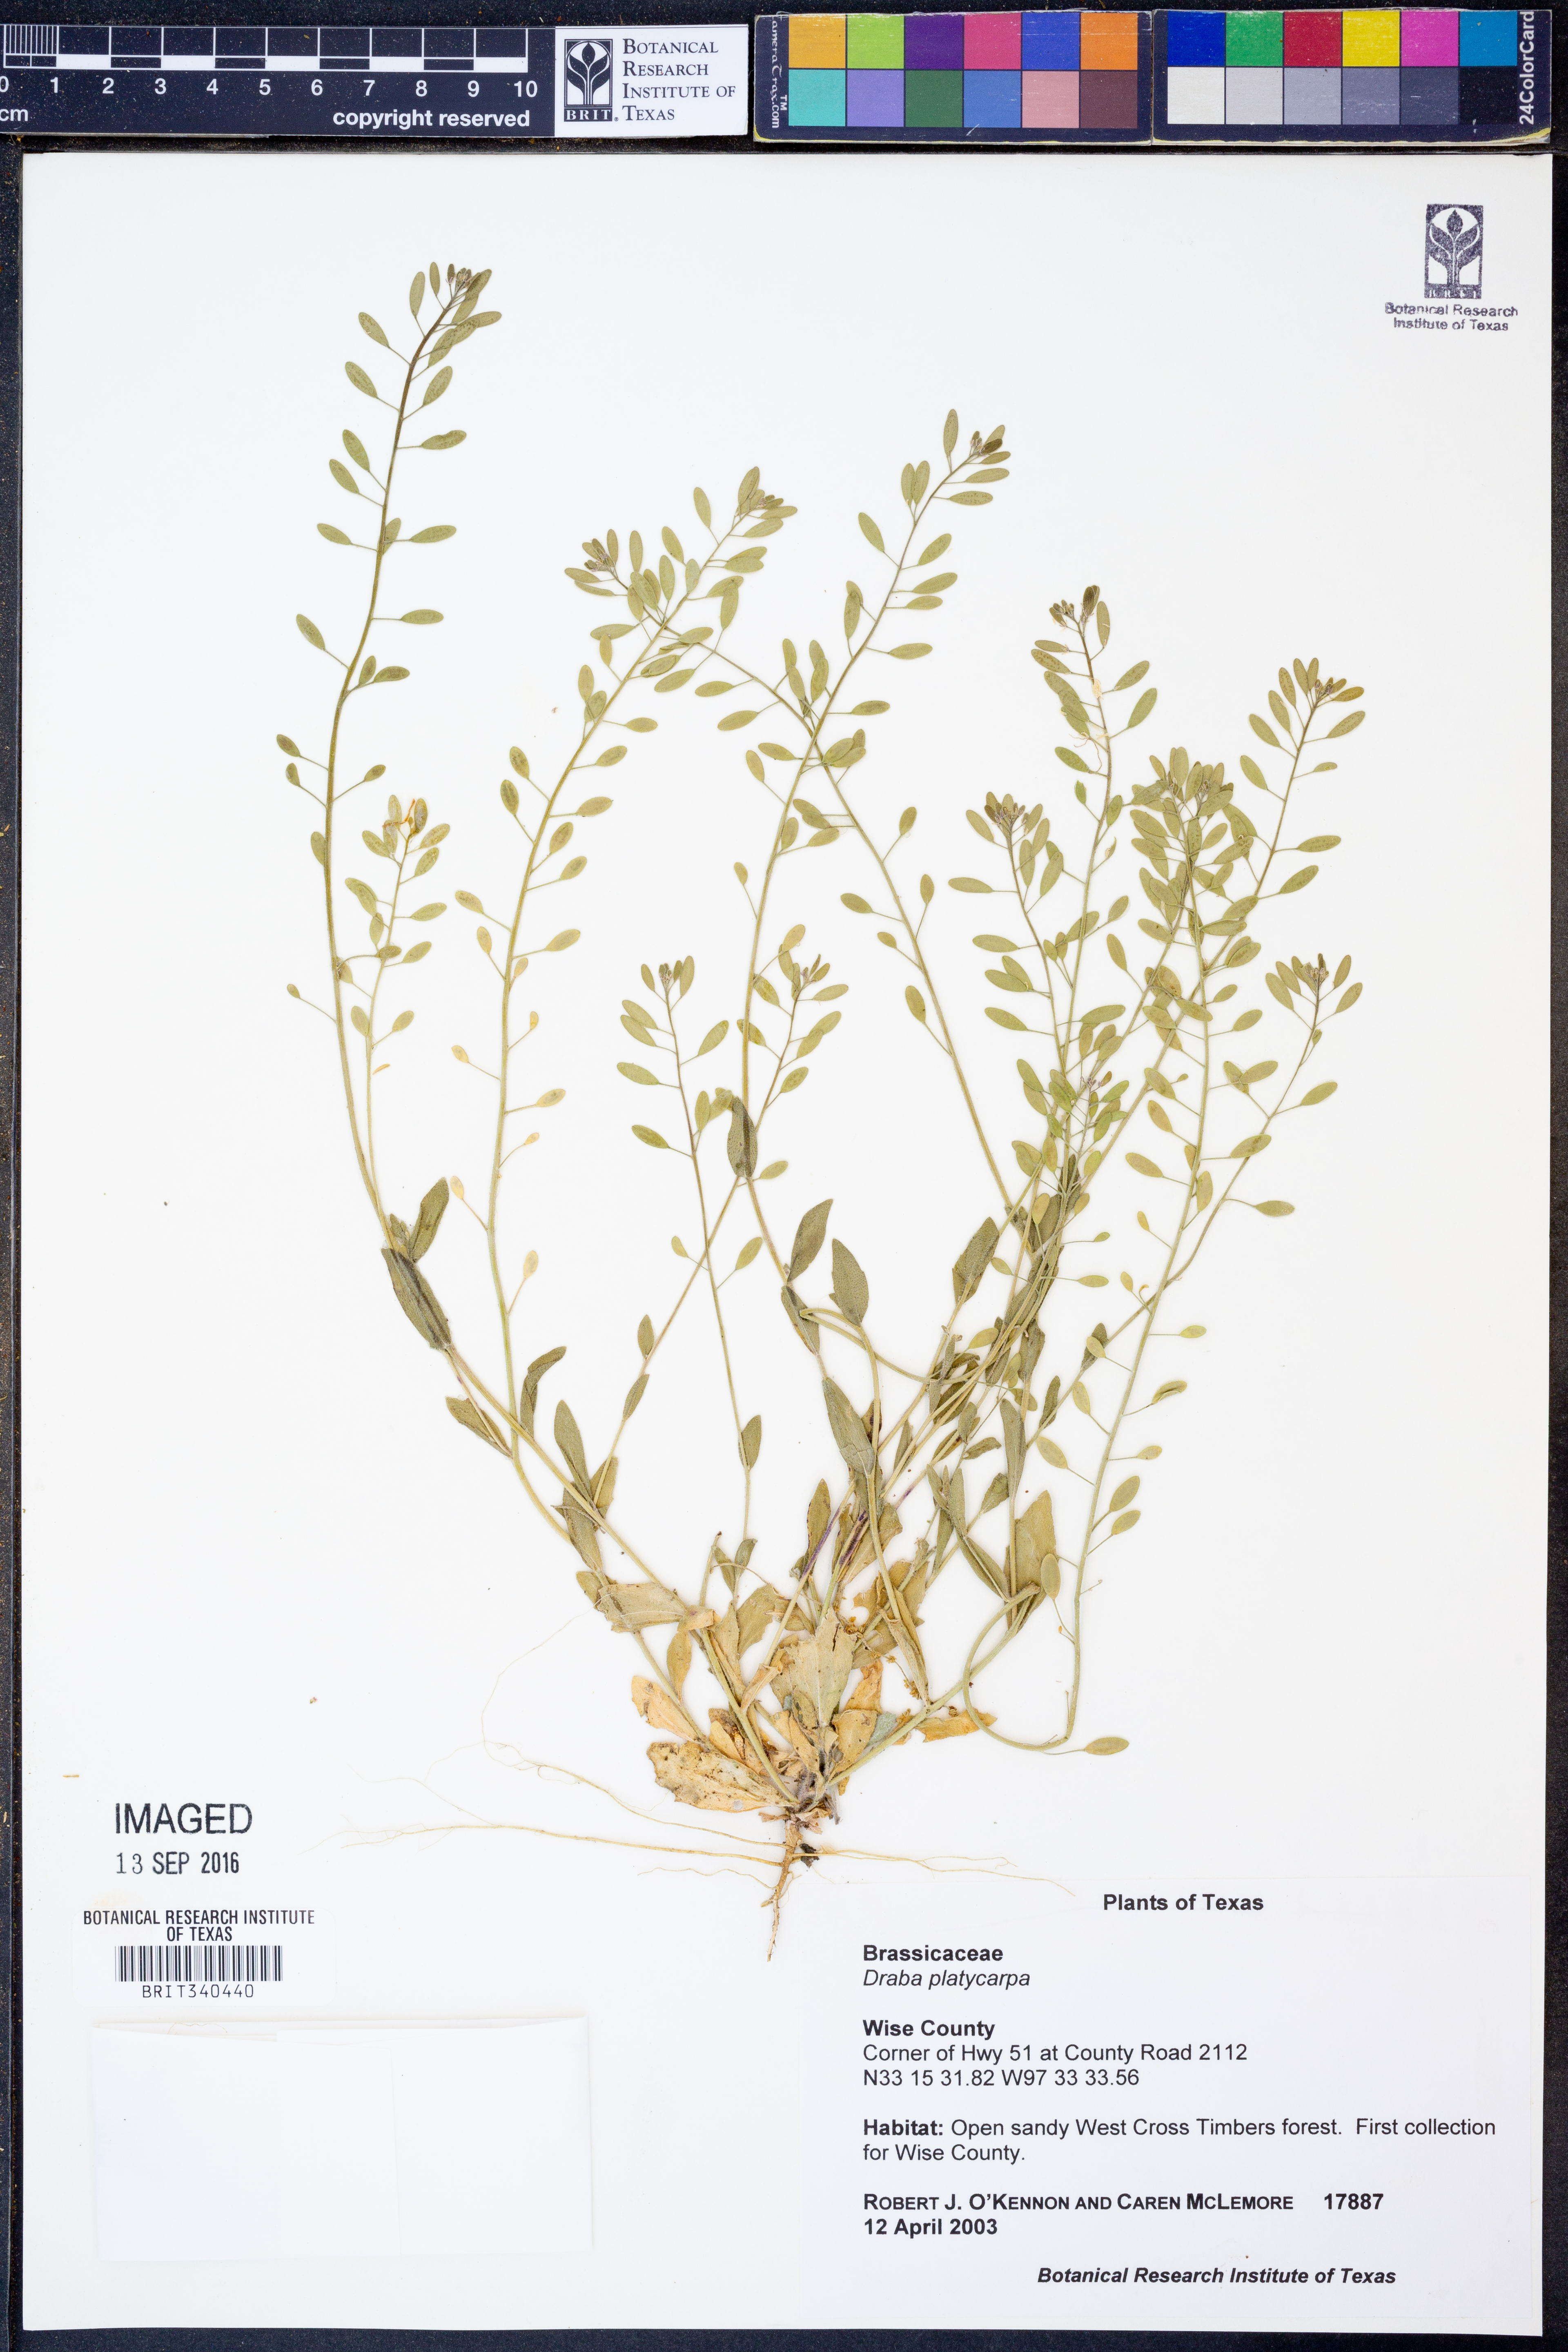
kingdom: Plantae
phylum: Tracheophyta
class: Magnoliopsida
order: Brassicales
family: Brassicaceae
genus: Tomostima
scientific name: Tomostima platycarpa
